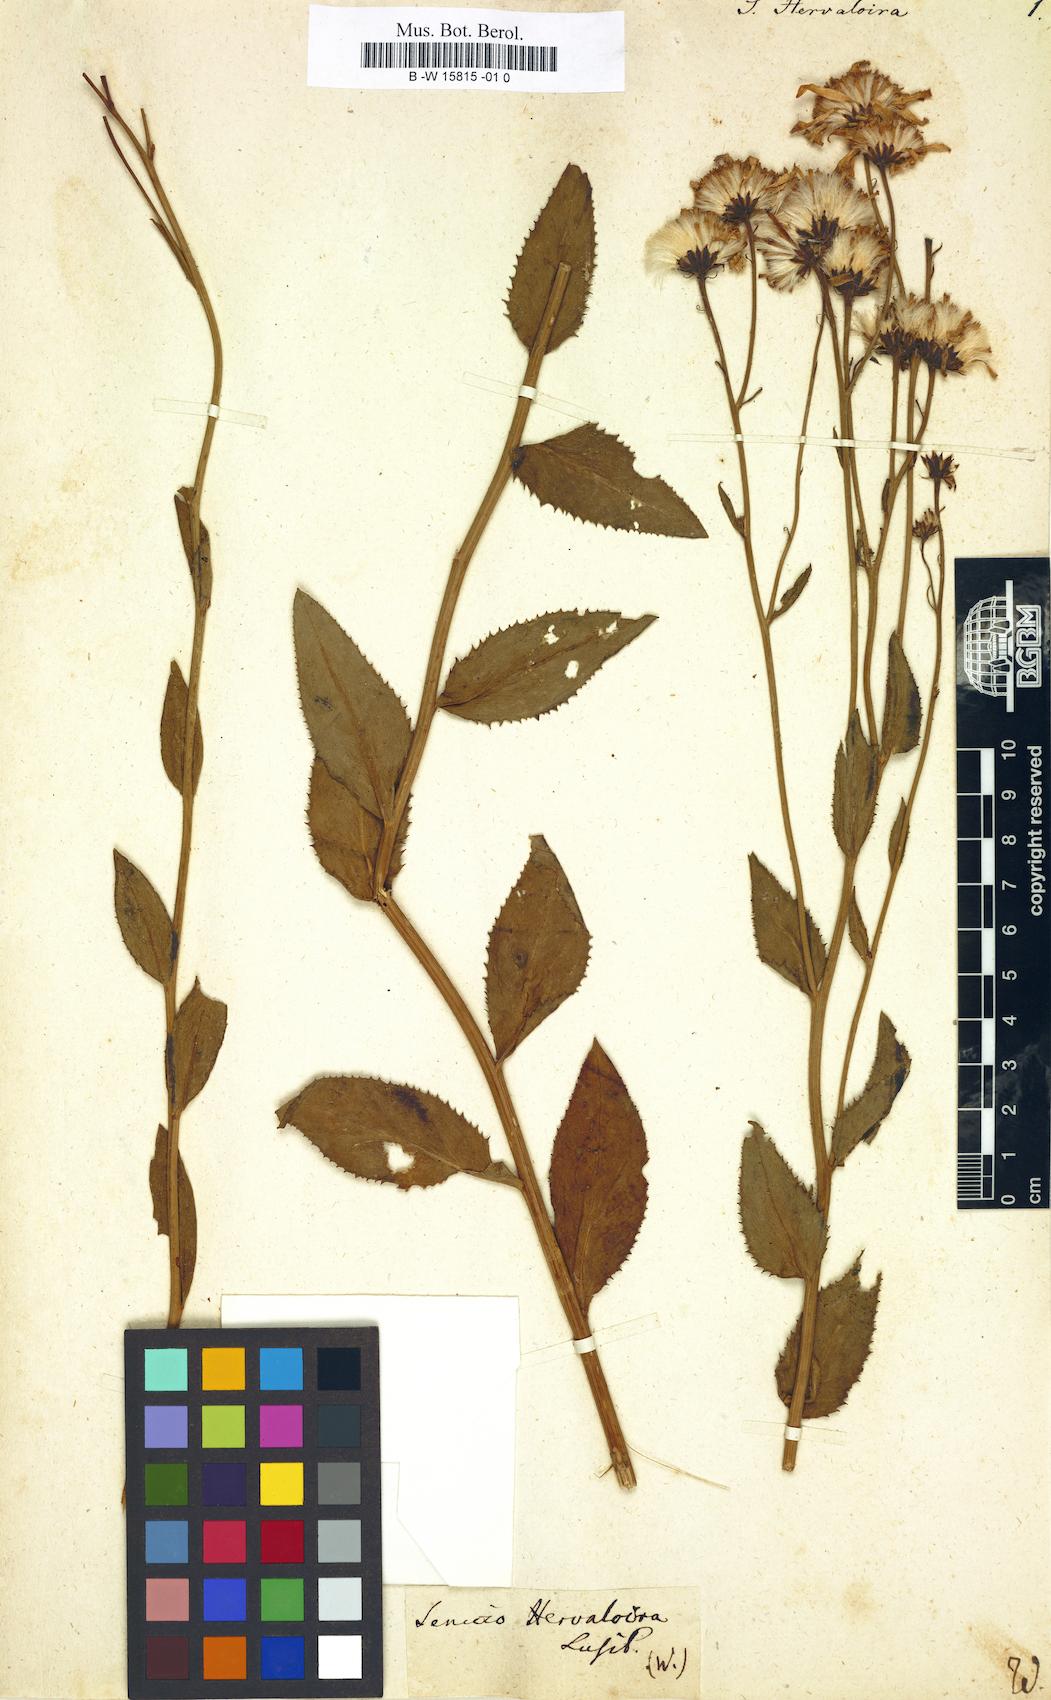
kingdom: Plantae
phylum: Tracheophyta
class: Magnoliopsida
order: Asterales
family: Asteraceae
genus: Senecio
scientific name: Senecio pyrenaicus
